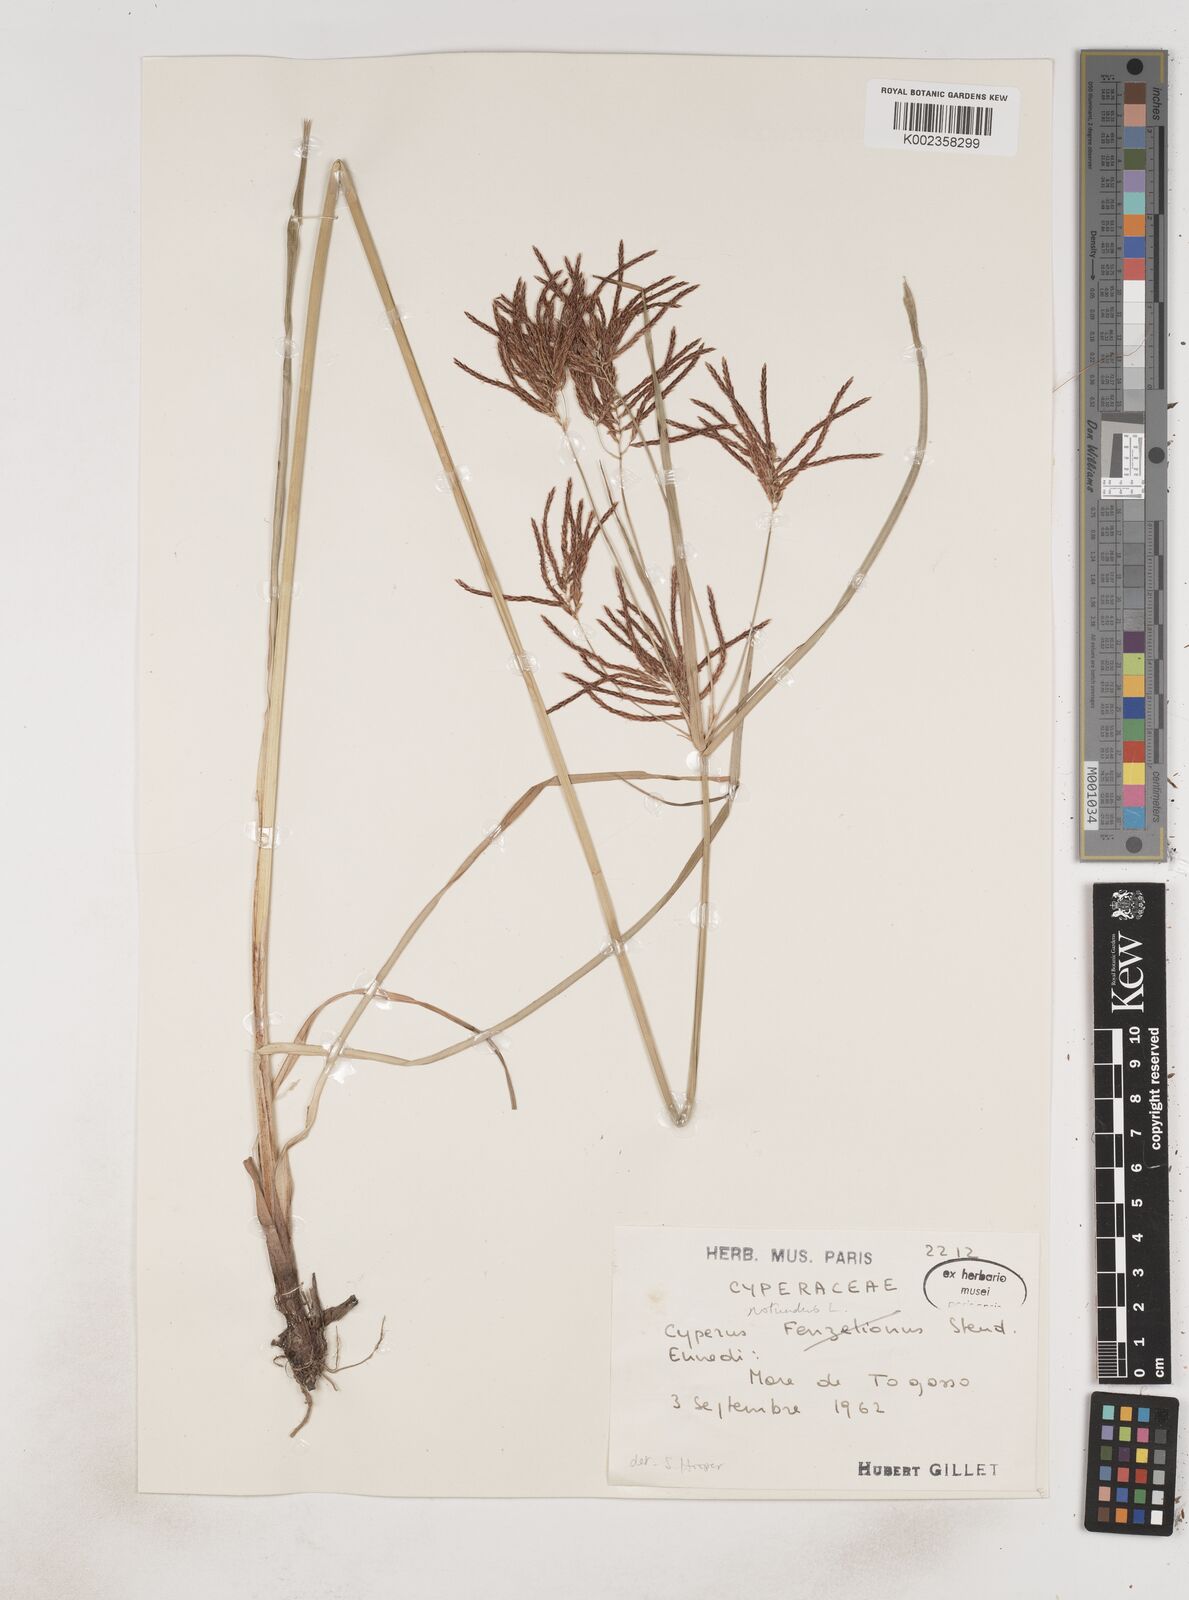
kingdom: Plantae
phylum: Tracheophyta
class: Liliopsida
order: Poales
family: Cyperaceae
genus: Cyperus
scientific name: Cyperus rotundus
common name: Nutgrass
